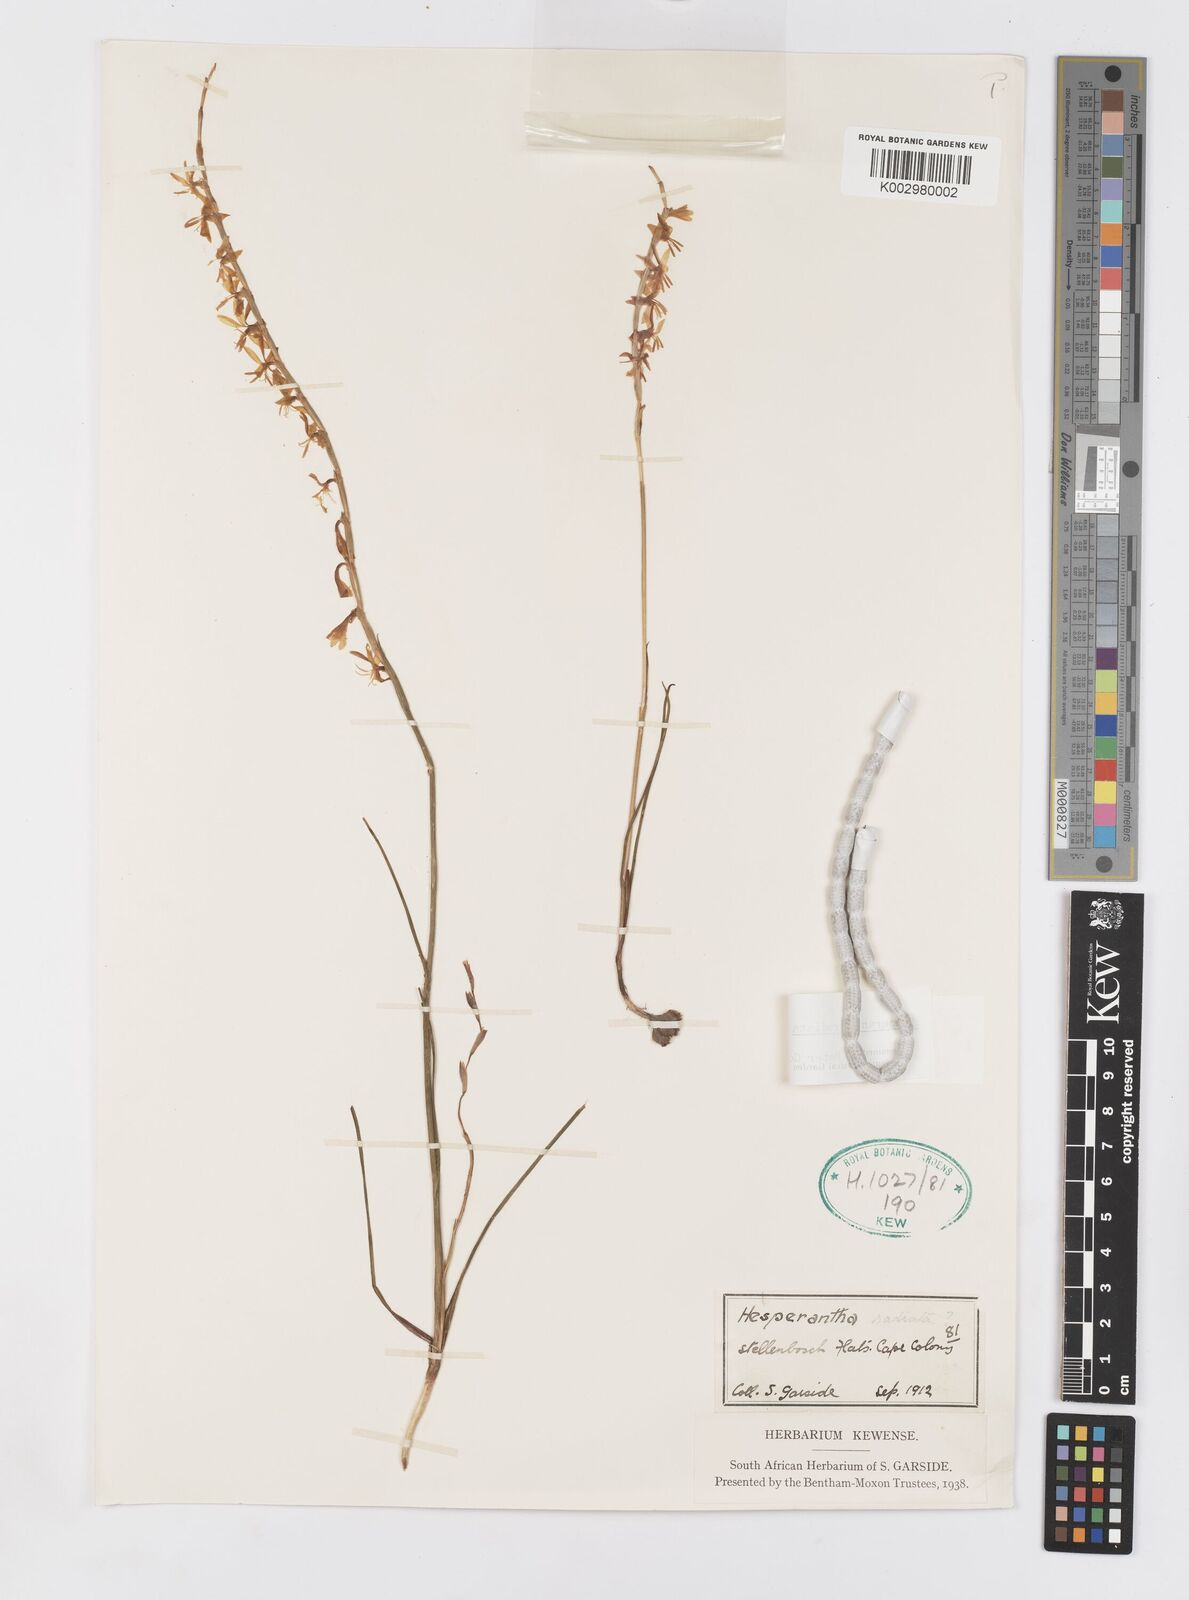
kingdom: Plantae
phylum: Tracheophyta
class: Liliopsida
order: Asparagales
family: Iridaceae
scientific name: Iridaceae
